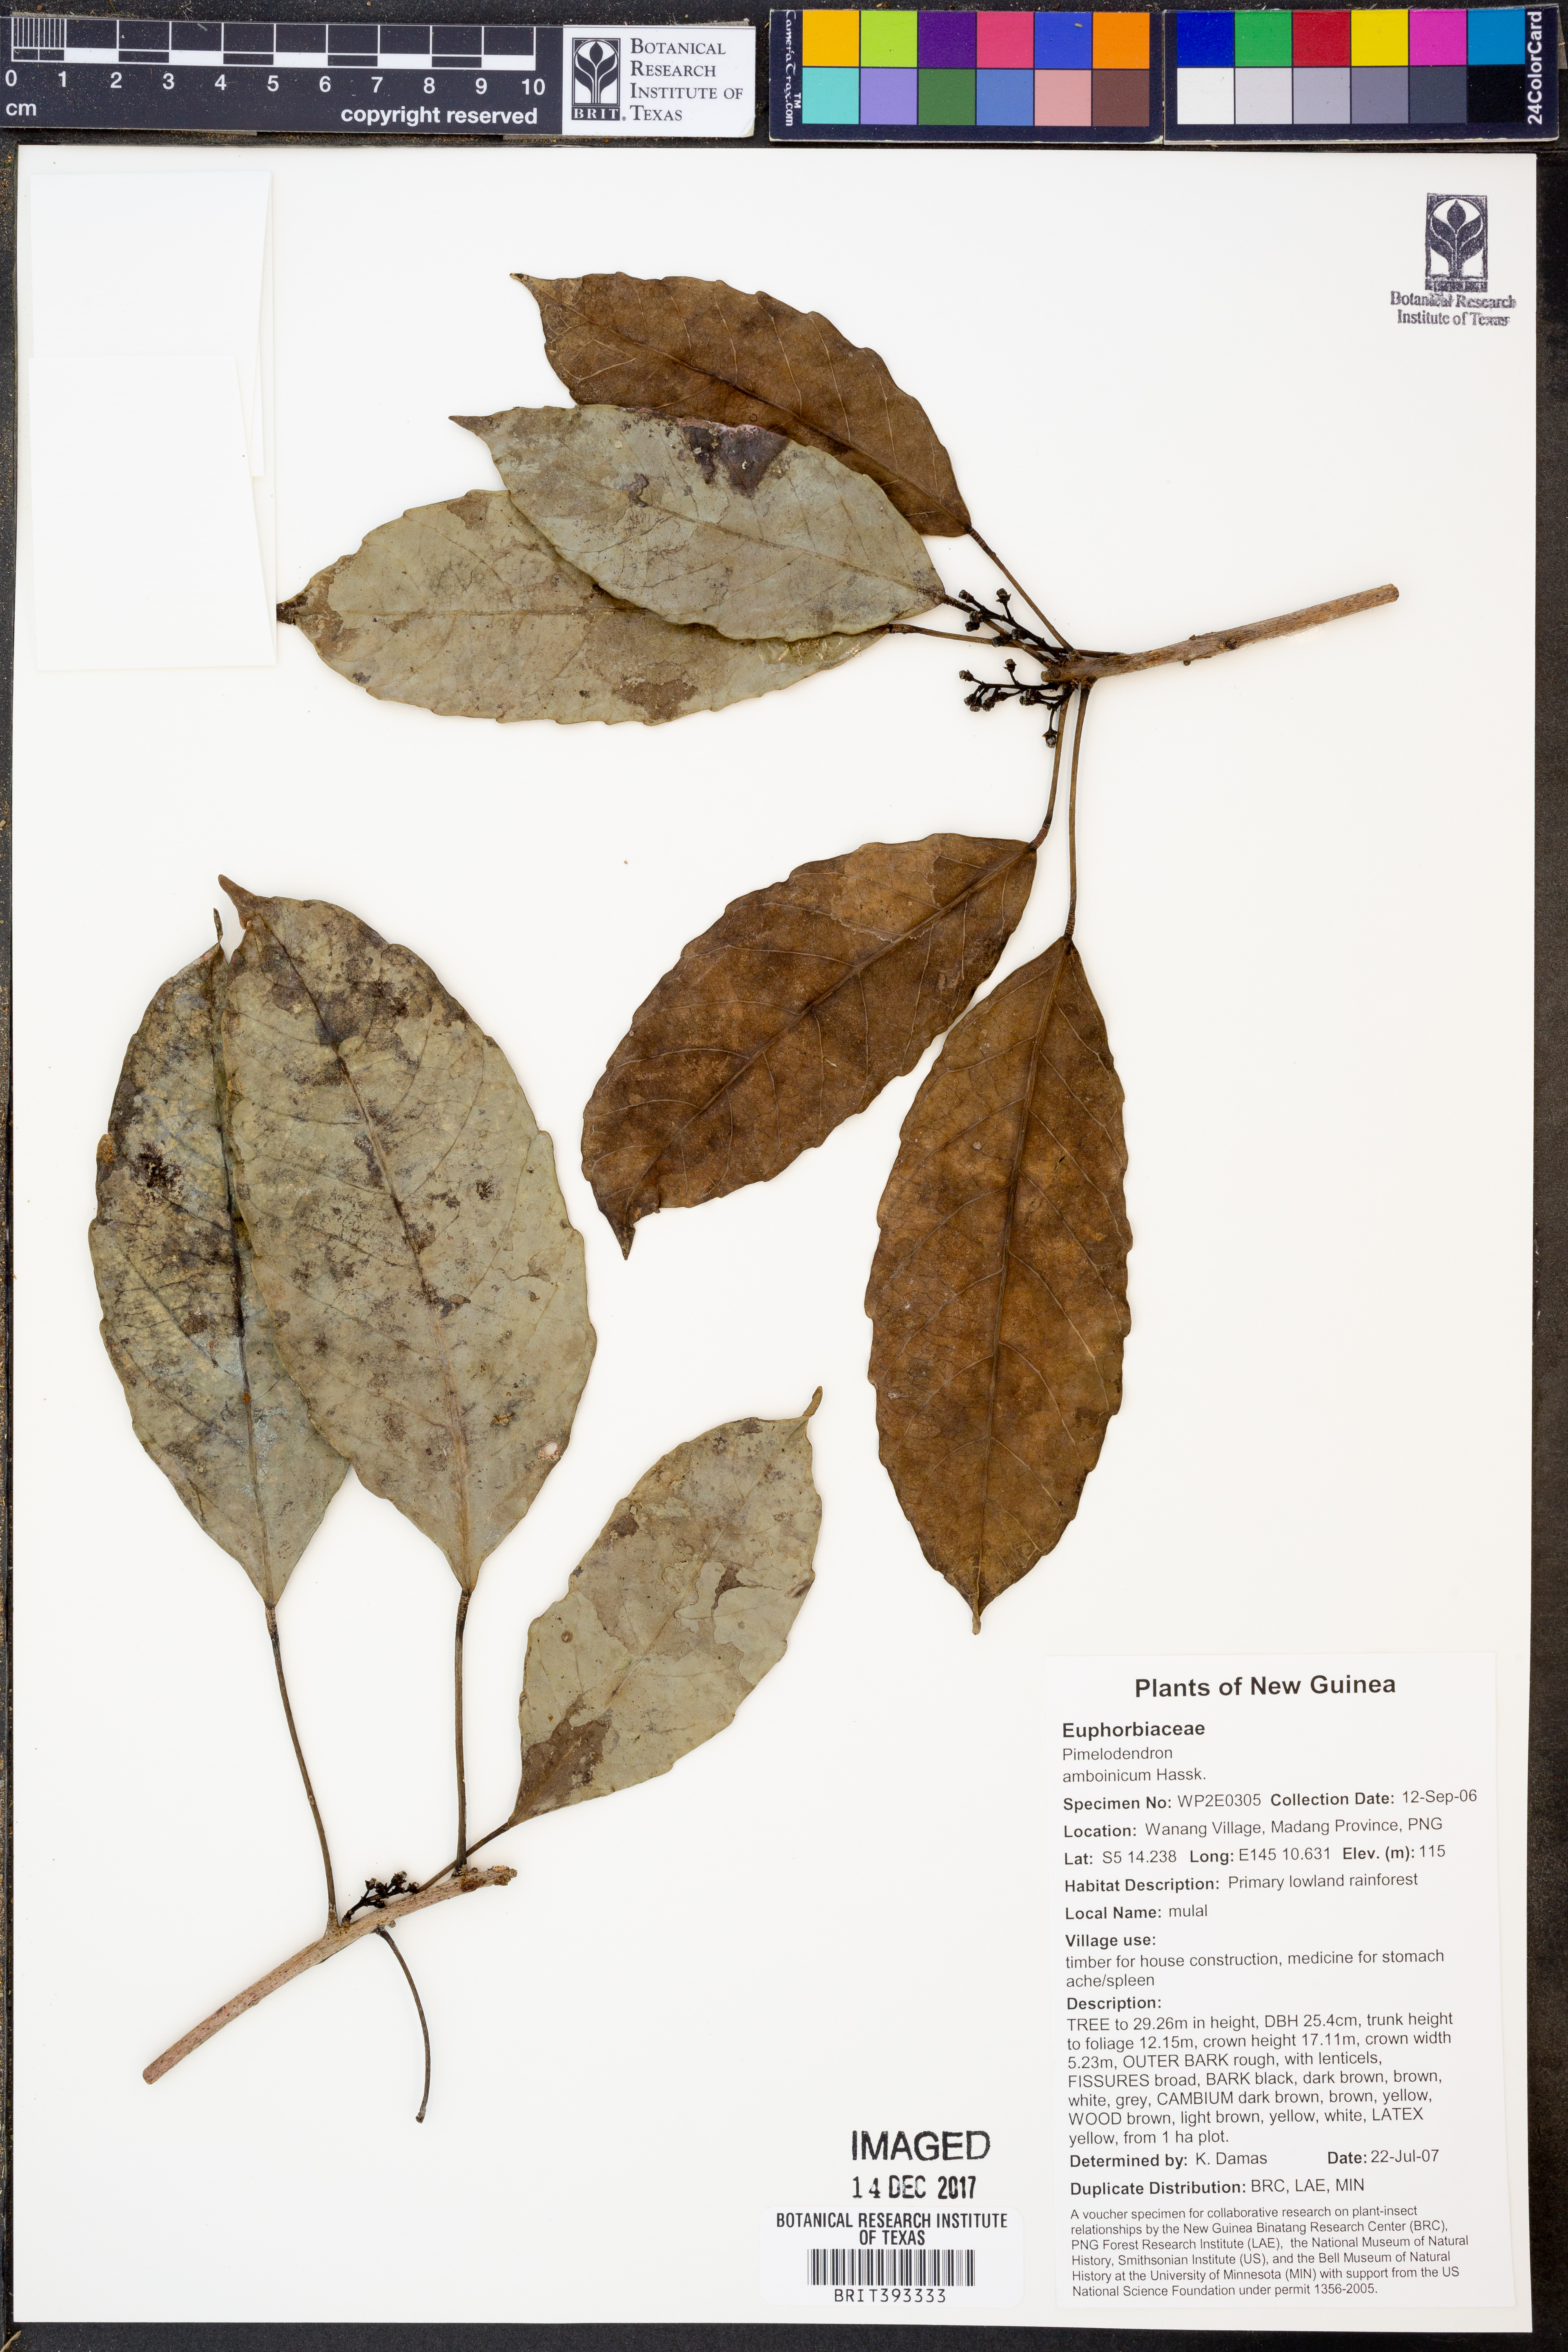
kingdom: Plantae
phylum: Tracheophyta
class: Magnoliopsida
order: Malpighiales
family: Euphorbiaceae
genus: Pimelodendron
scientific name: Pimelodendron amboinicum
